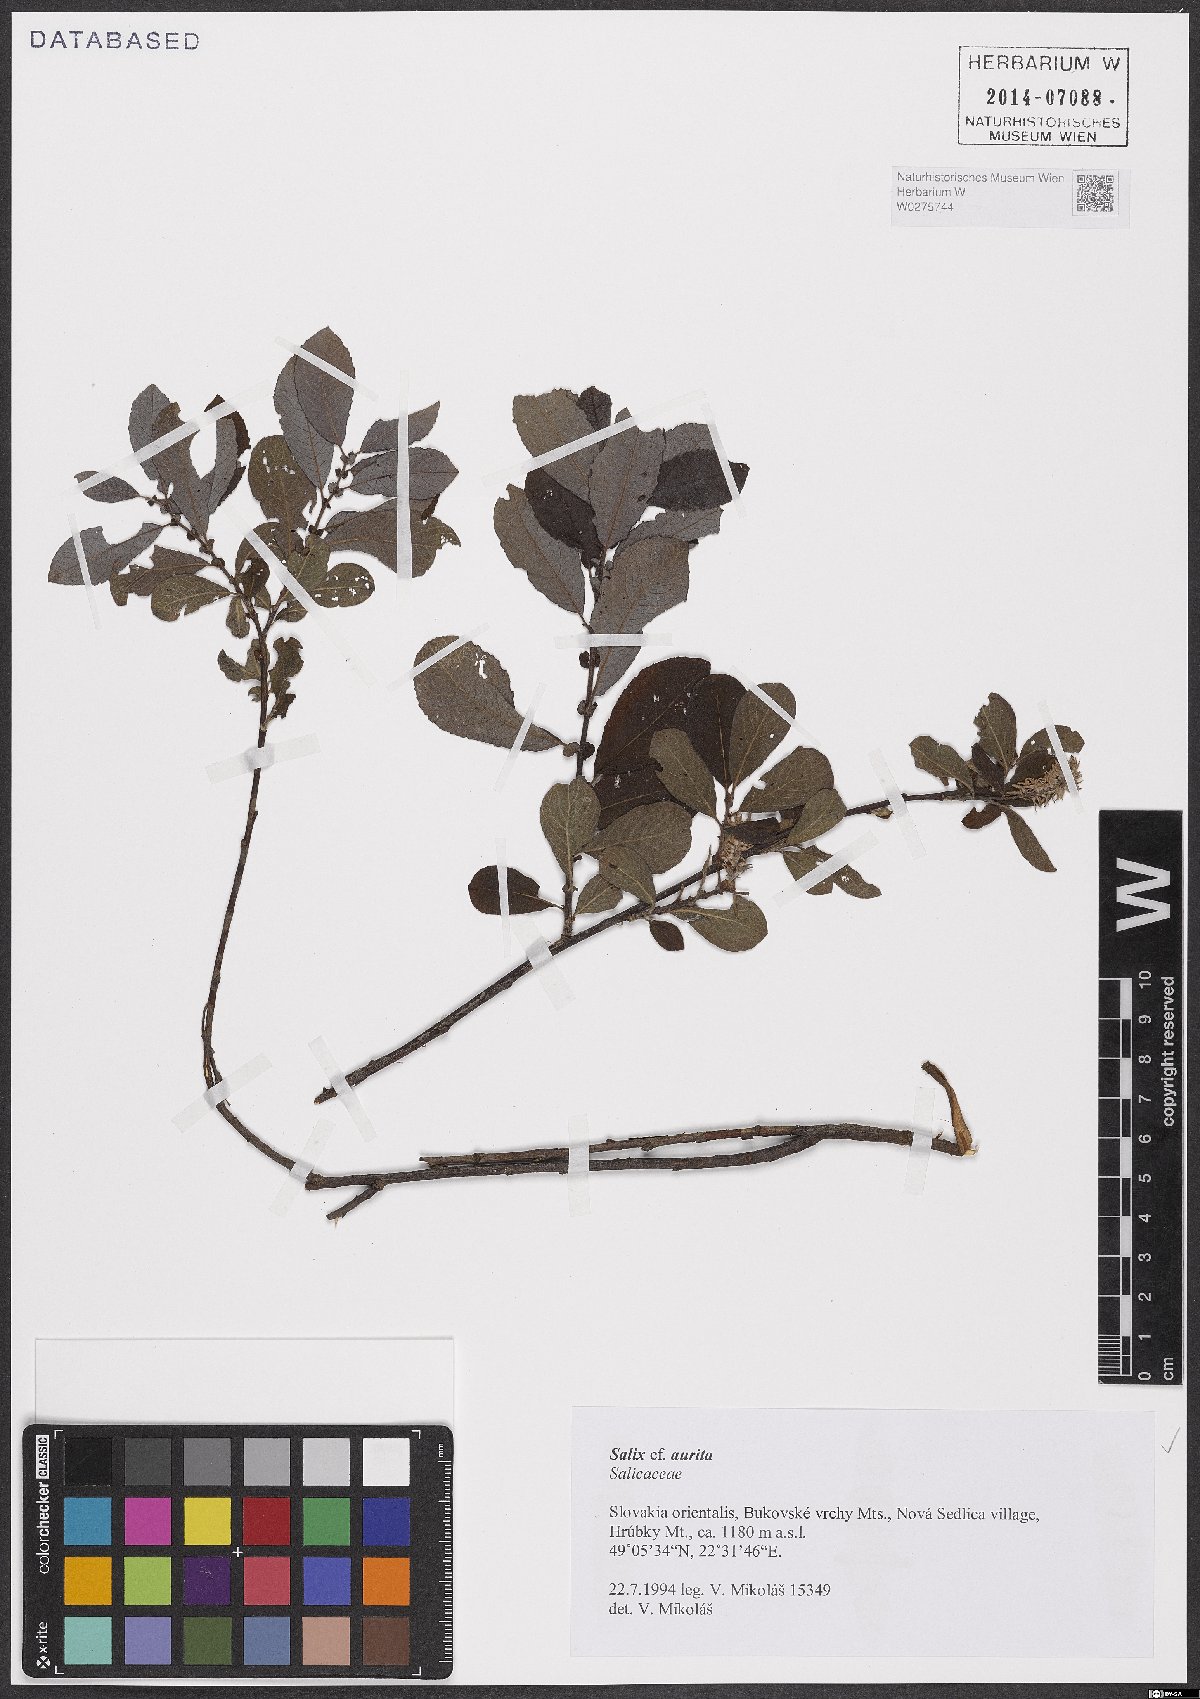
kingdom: Plantae
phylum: Tracheophyta
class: Magnoliopsida
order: Malpighiales
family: Salicaceae
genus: Salix
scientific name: Salix aurita
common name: Eared willow
